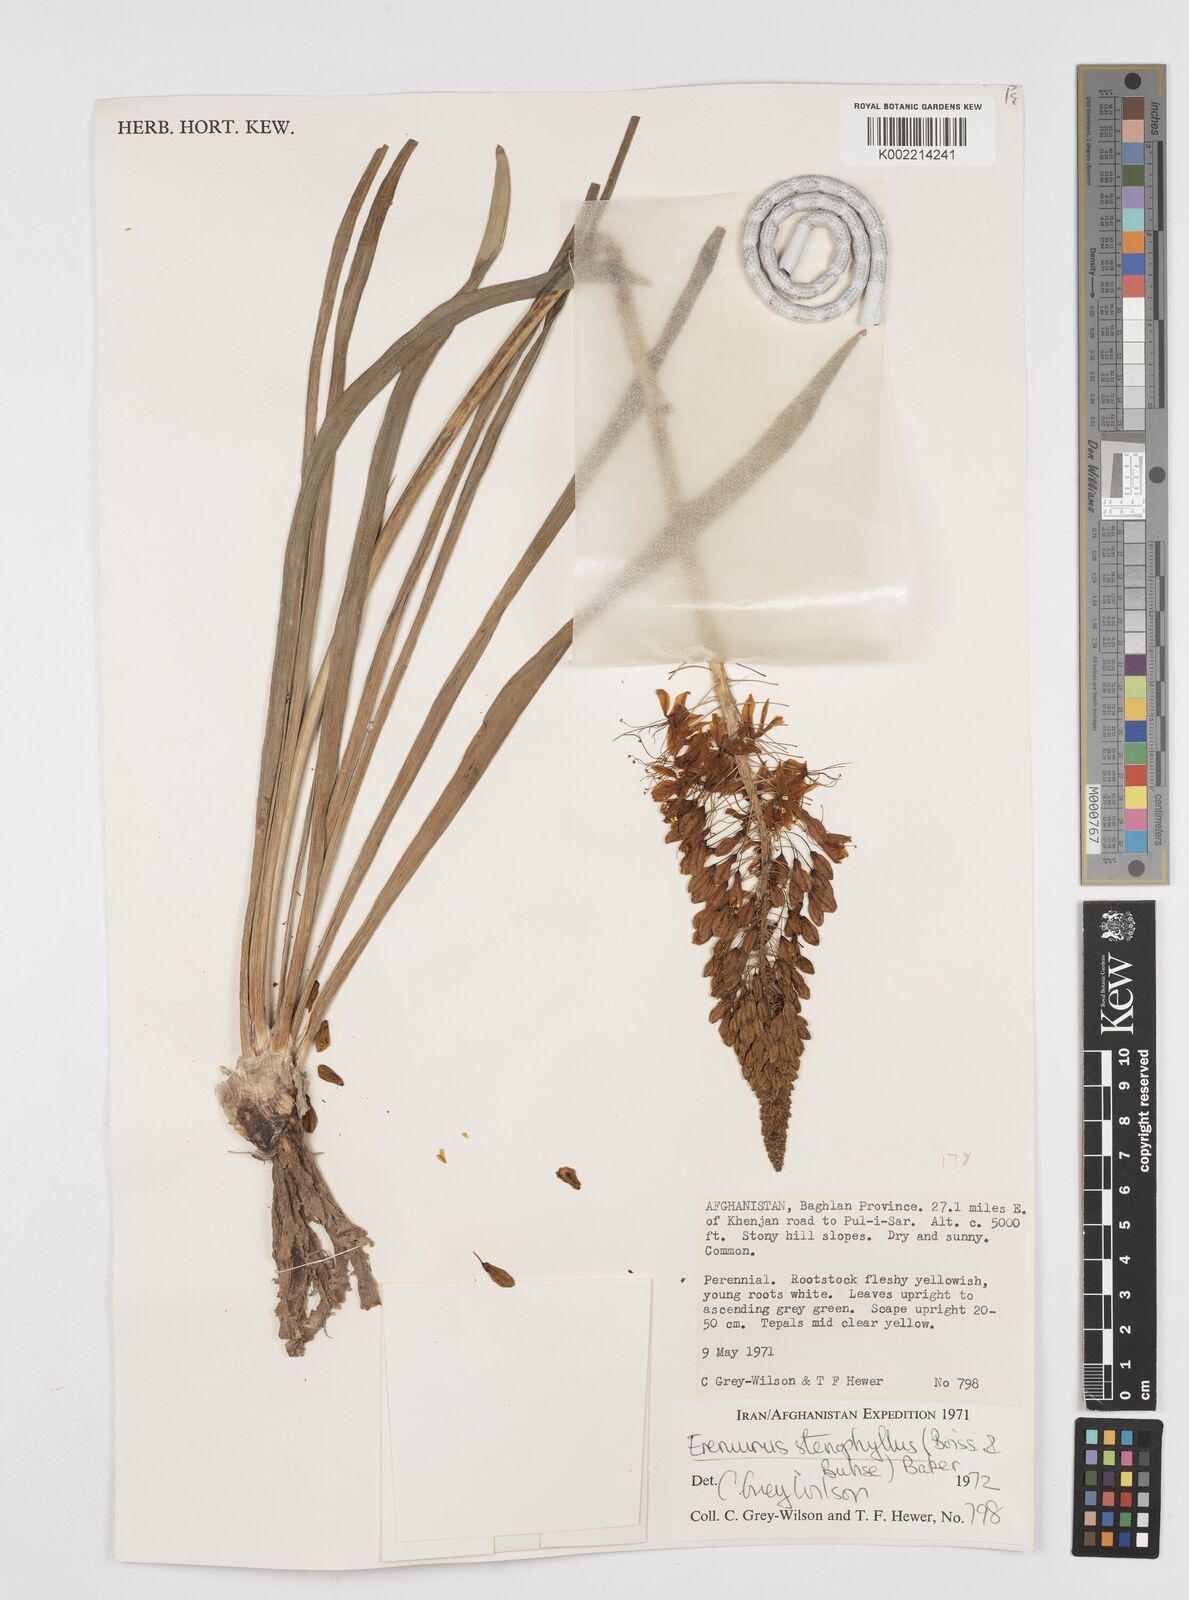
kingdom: Plantae
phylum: Tracheophyta
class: Liliopsida
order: Asparagales
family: Asphodelaceae
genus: Eremurus
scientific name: Eremurus stenophyllus
